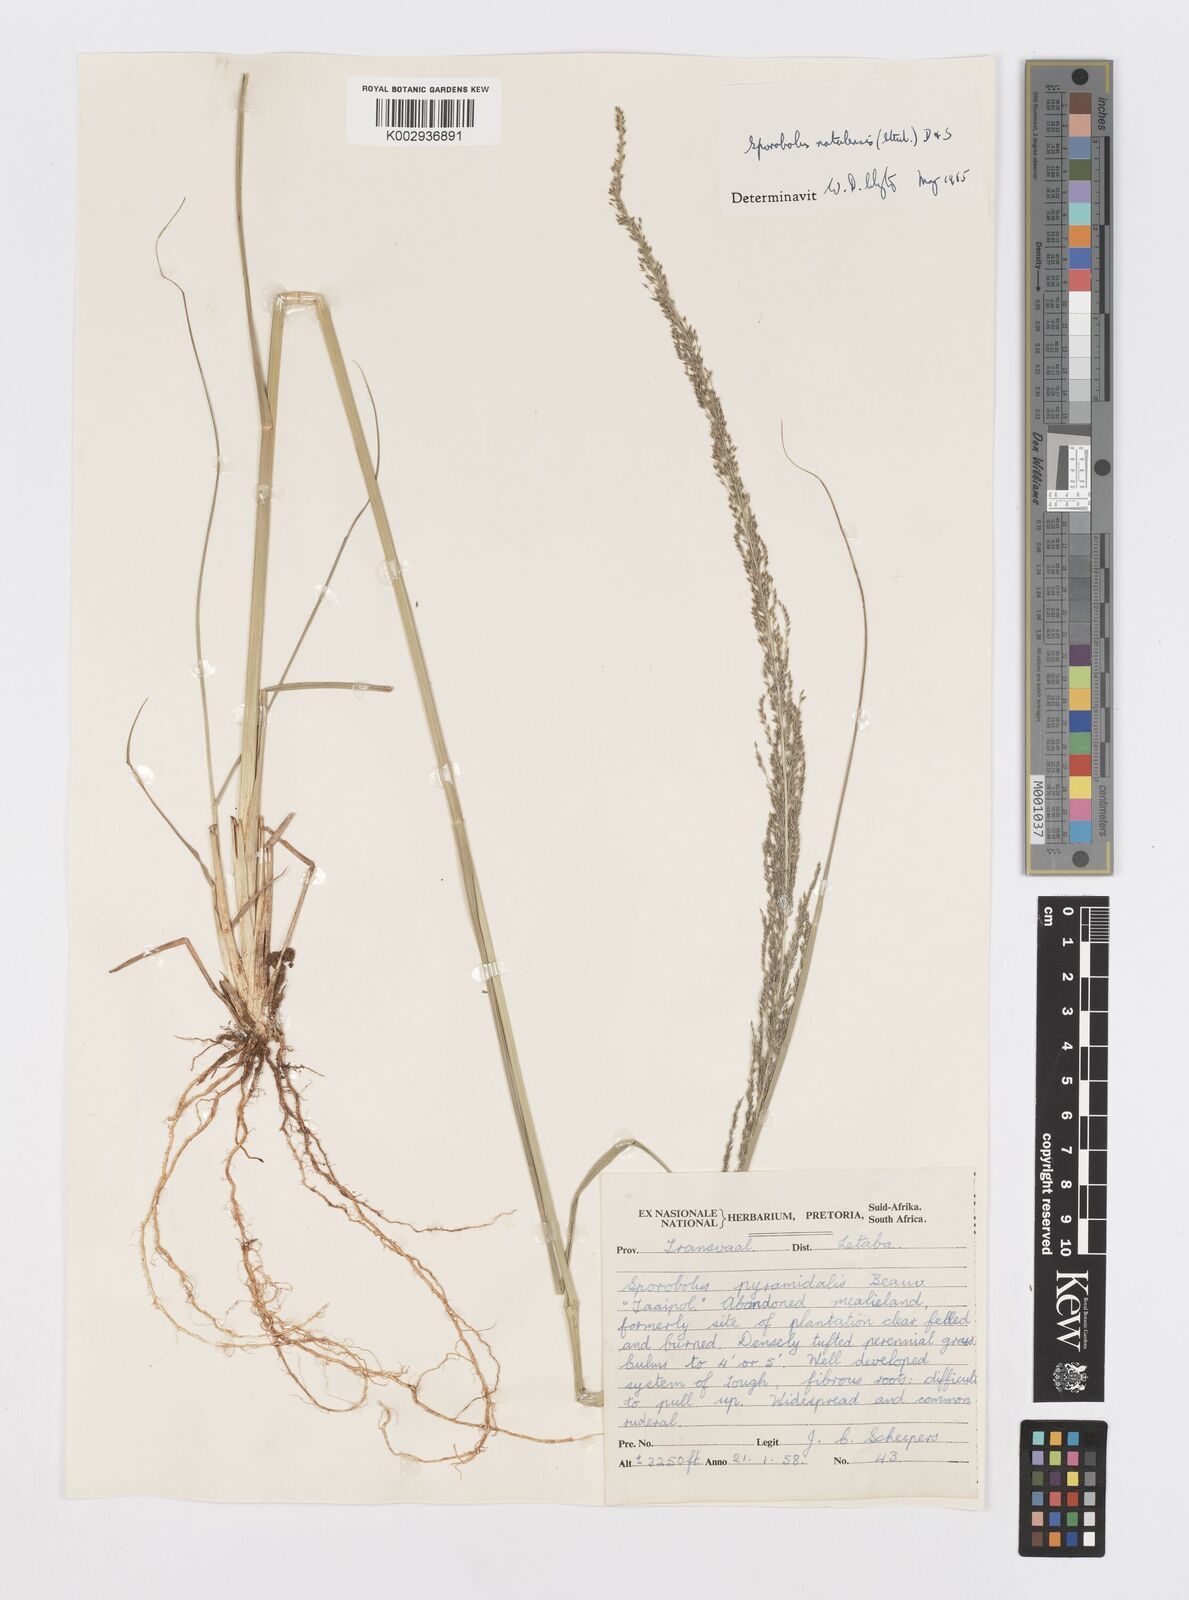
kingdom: Plantae
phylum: Tracheophyta
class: Liliopsida
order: Poales
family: Poaceae
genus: Sporobolus
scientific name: Sporobolus natalensis
